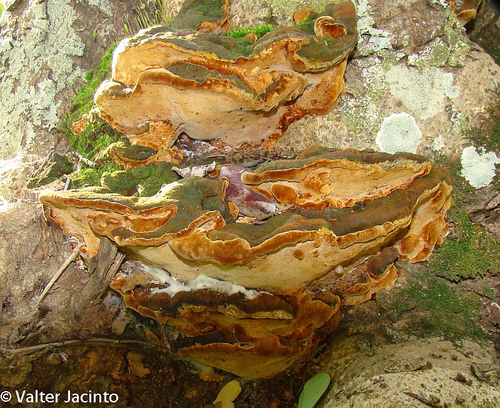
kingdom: Fungi
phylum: Basidiomycota
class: Agaricomycetes
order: Hymenochaetales
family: Hymenochaetaceae
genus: Fuscoporia
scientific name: Fuscoporia torulosa
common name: Tufted bracket
